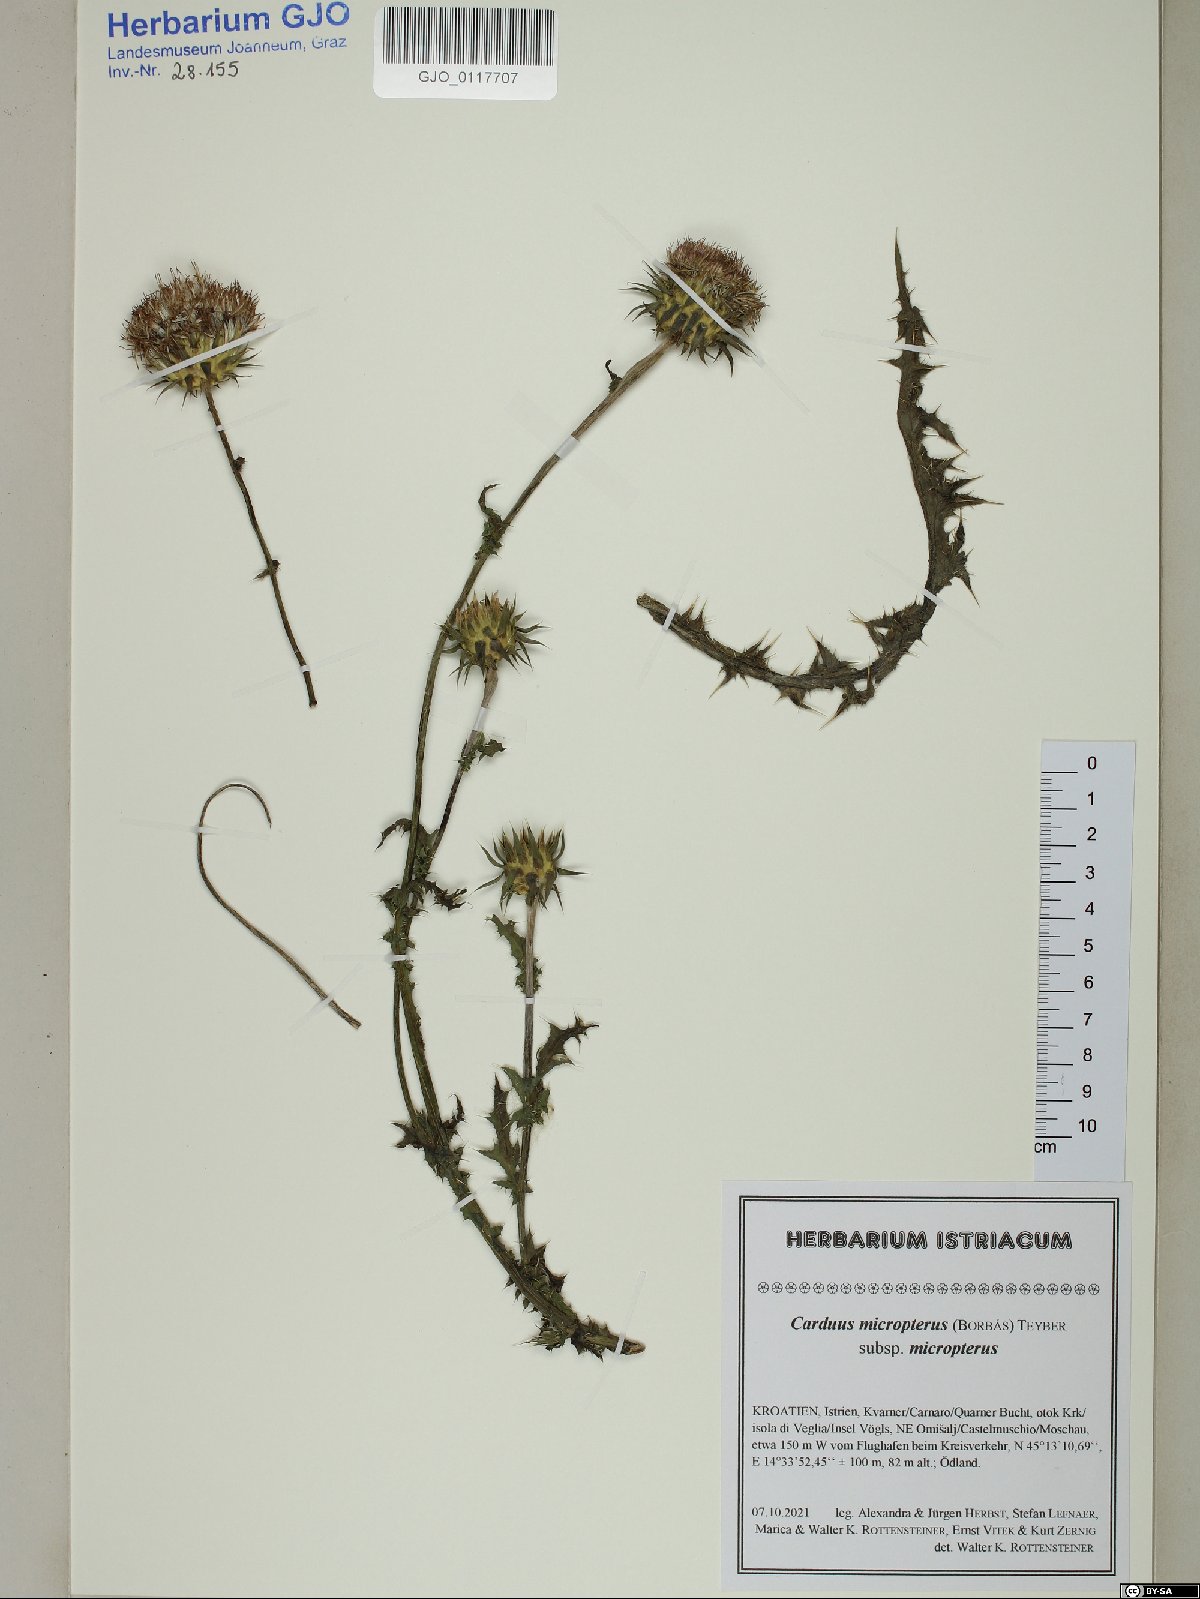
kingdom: Plantae
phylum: Tracheophyta
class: Magnoliopsida
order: Asterales
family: Asteraceae
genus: Carduus
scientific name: Carduus nutans
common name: Musk thistle
